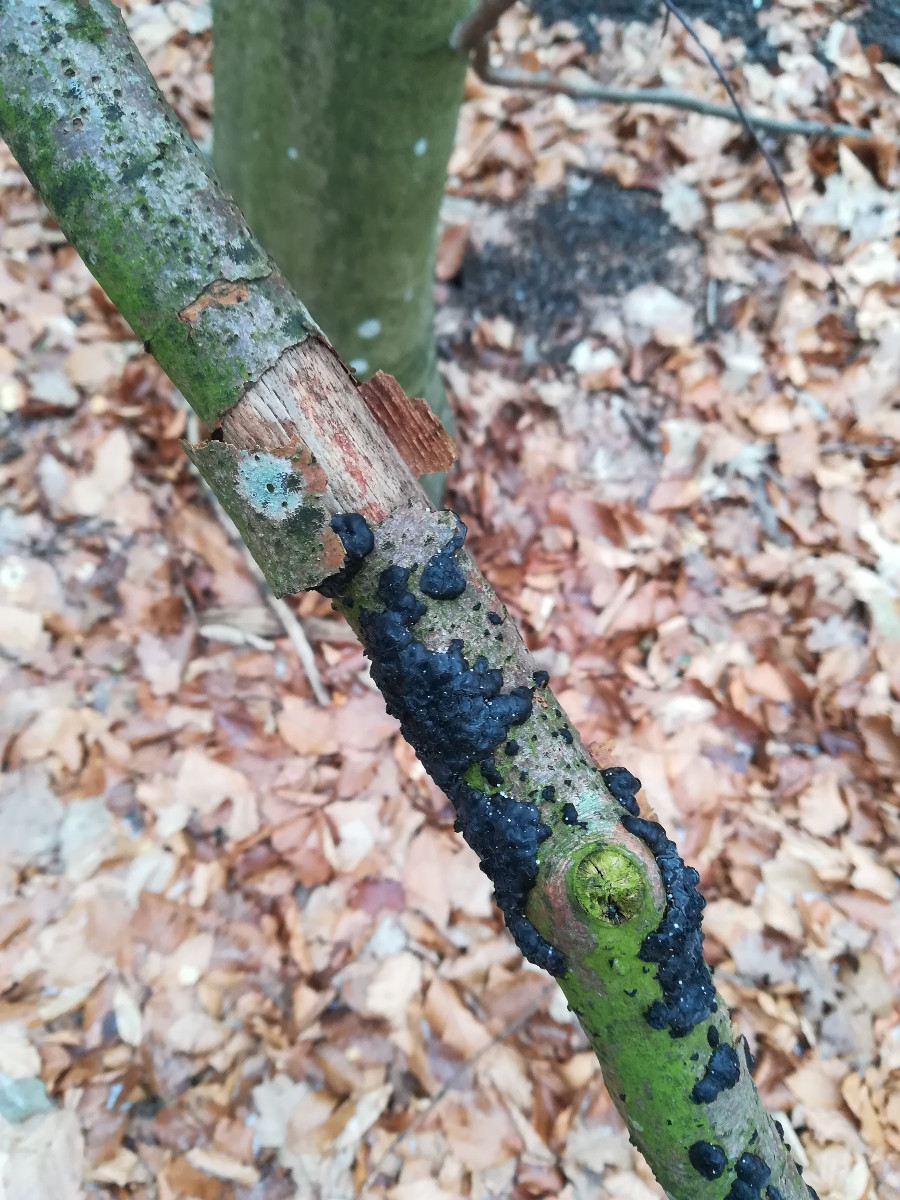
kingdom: Fungi
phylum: Basidiomycota
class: Agaricomycetes
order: Auriculariales
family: Auriculariaceae
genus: Exidia
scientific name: Exidia nigricans
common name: almindelig bævretop
